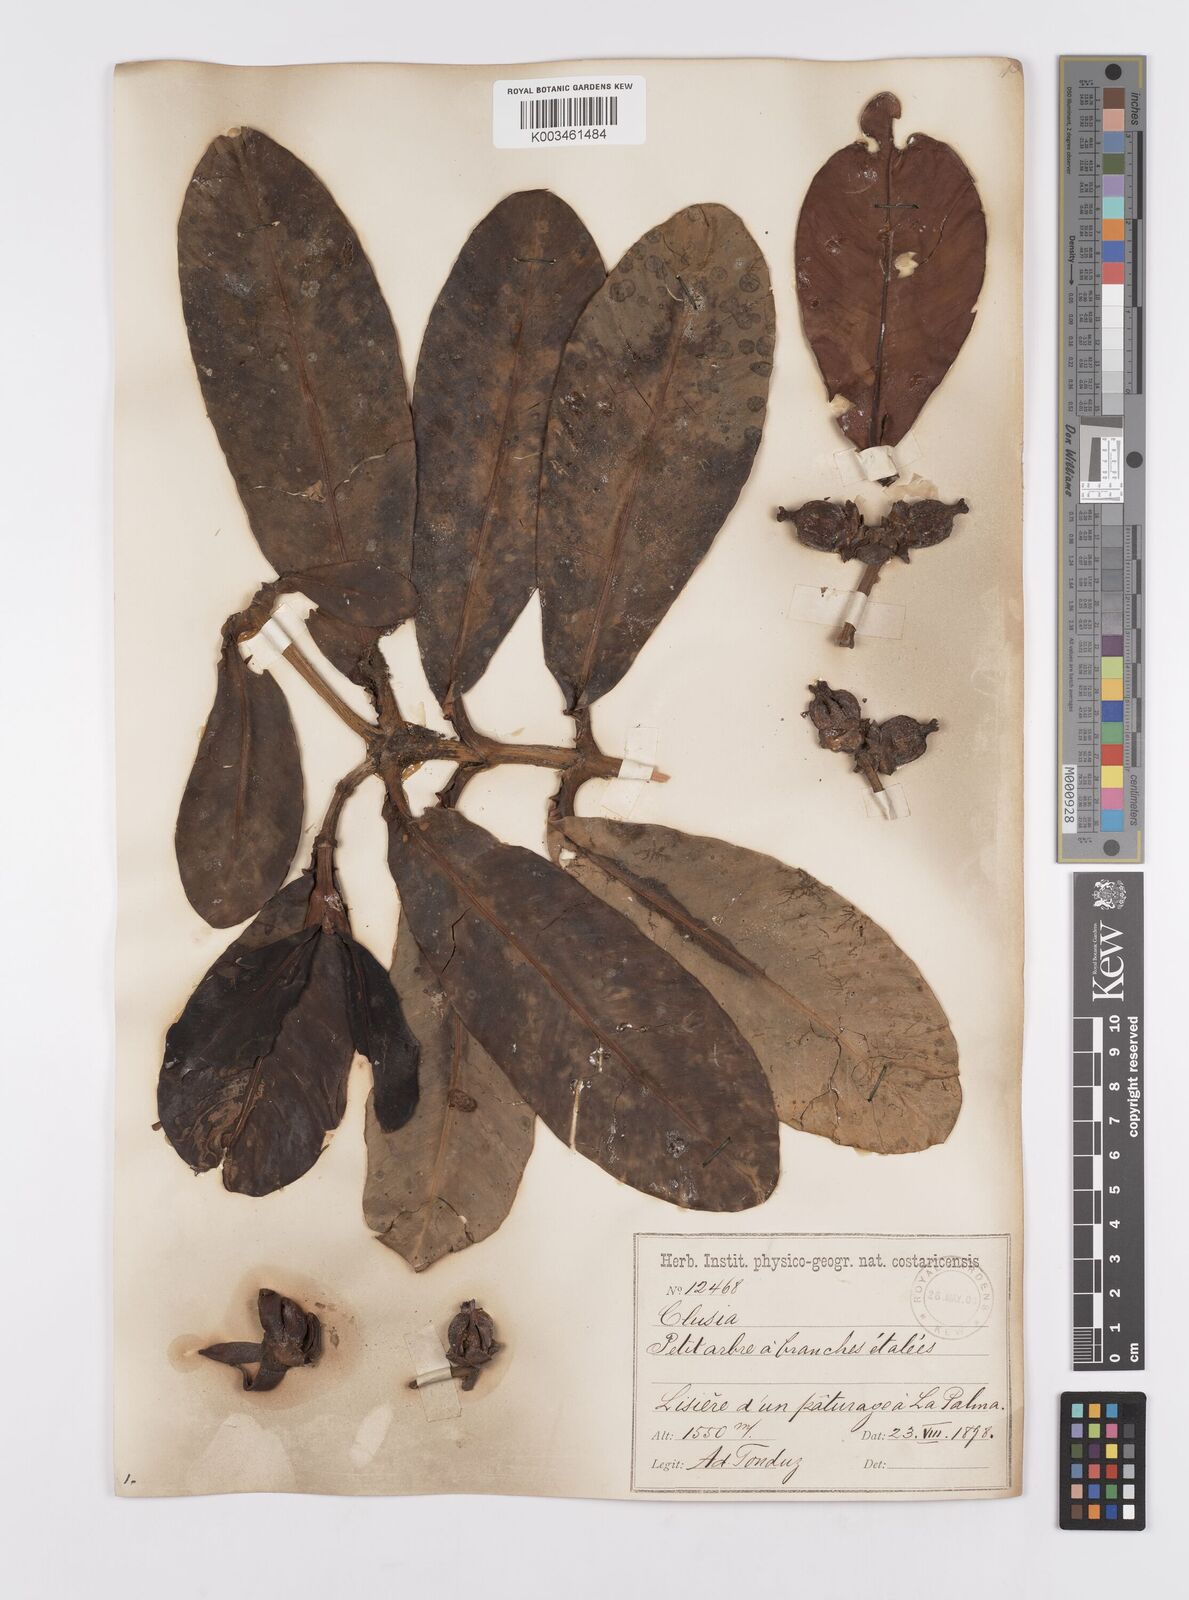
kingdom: Plantae
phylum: Tracheophyta
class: Magnoliopsida
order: Malpighiales
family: Clusiaceae
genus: Clusia
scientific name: Clusia stenophylla
